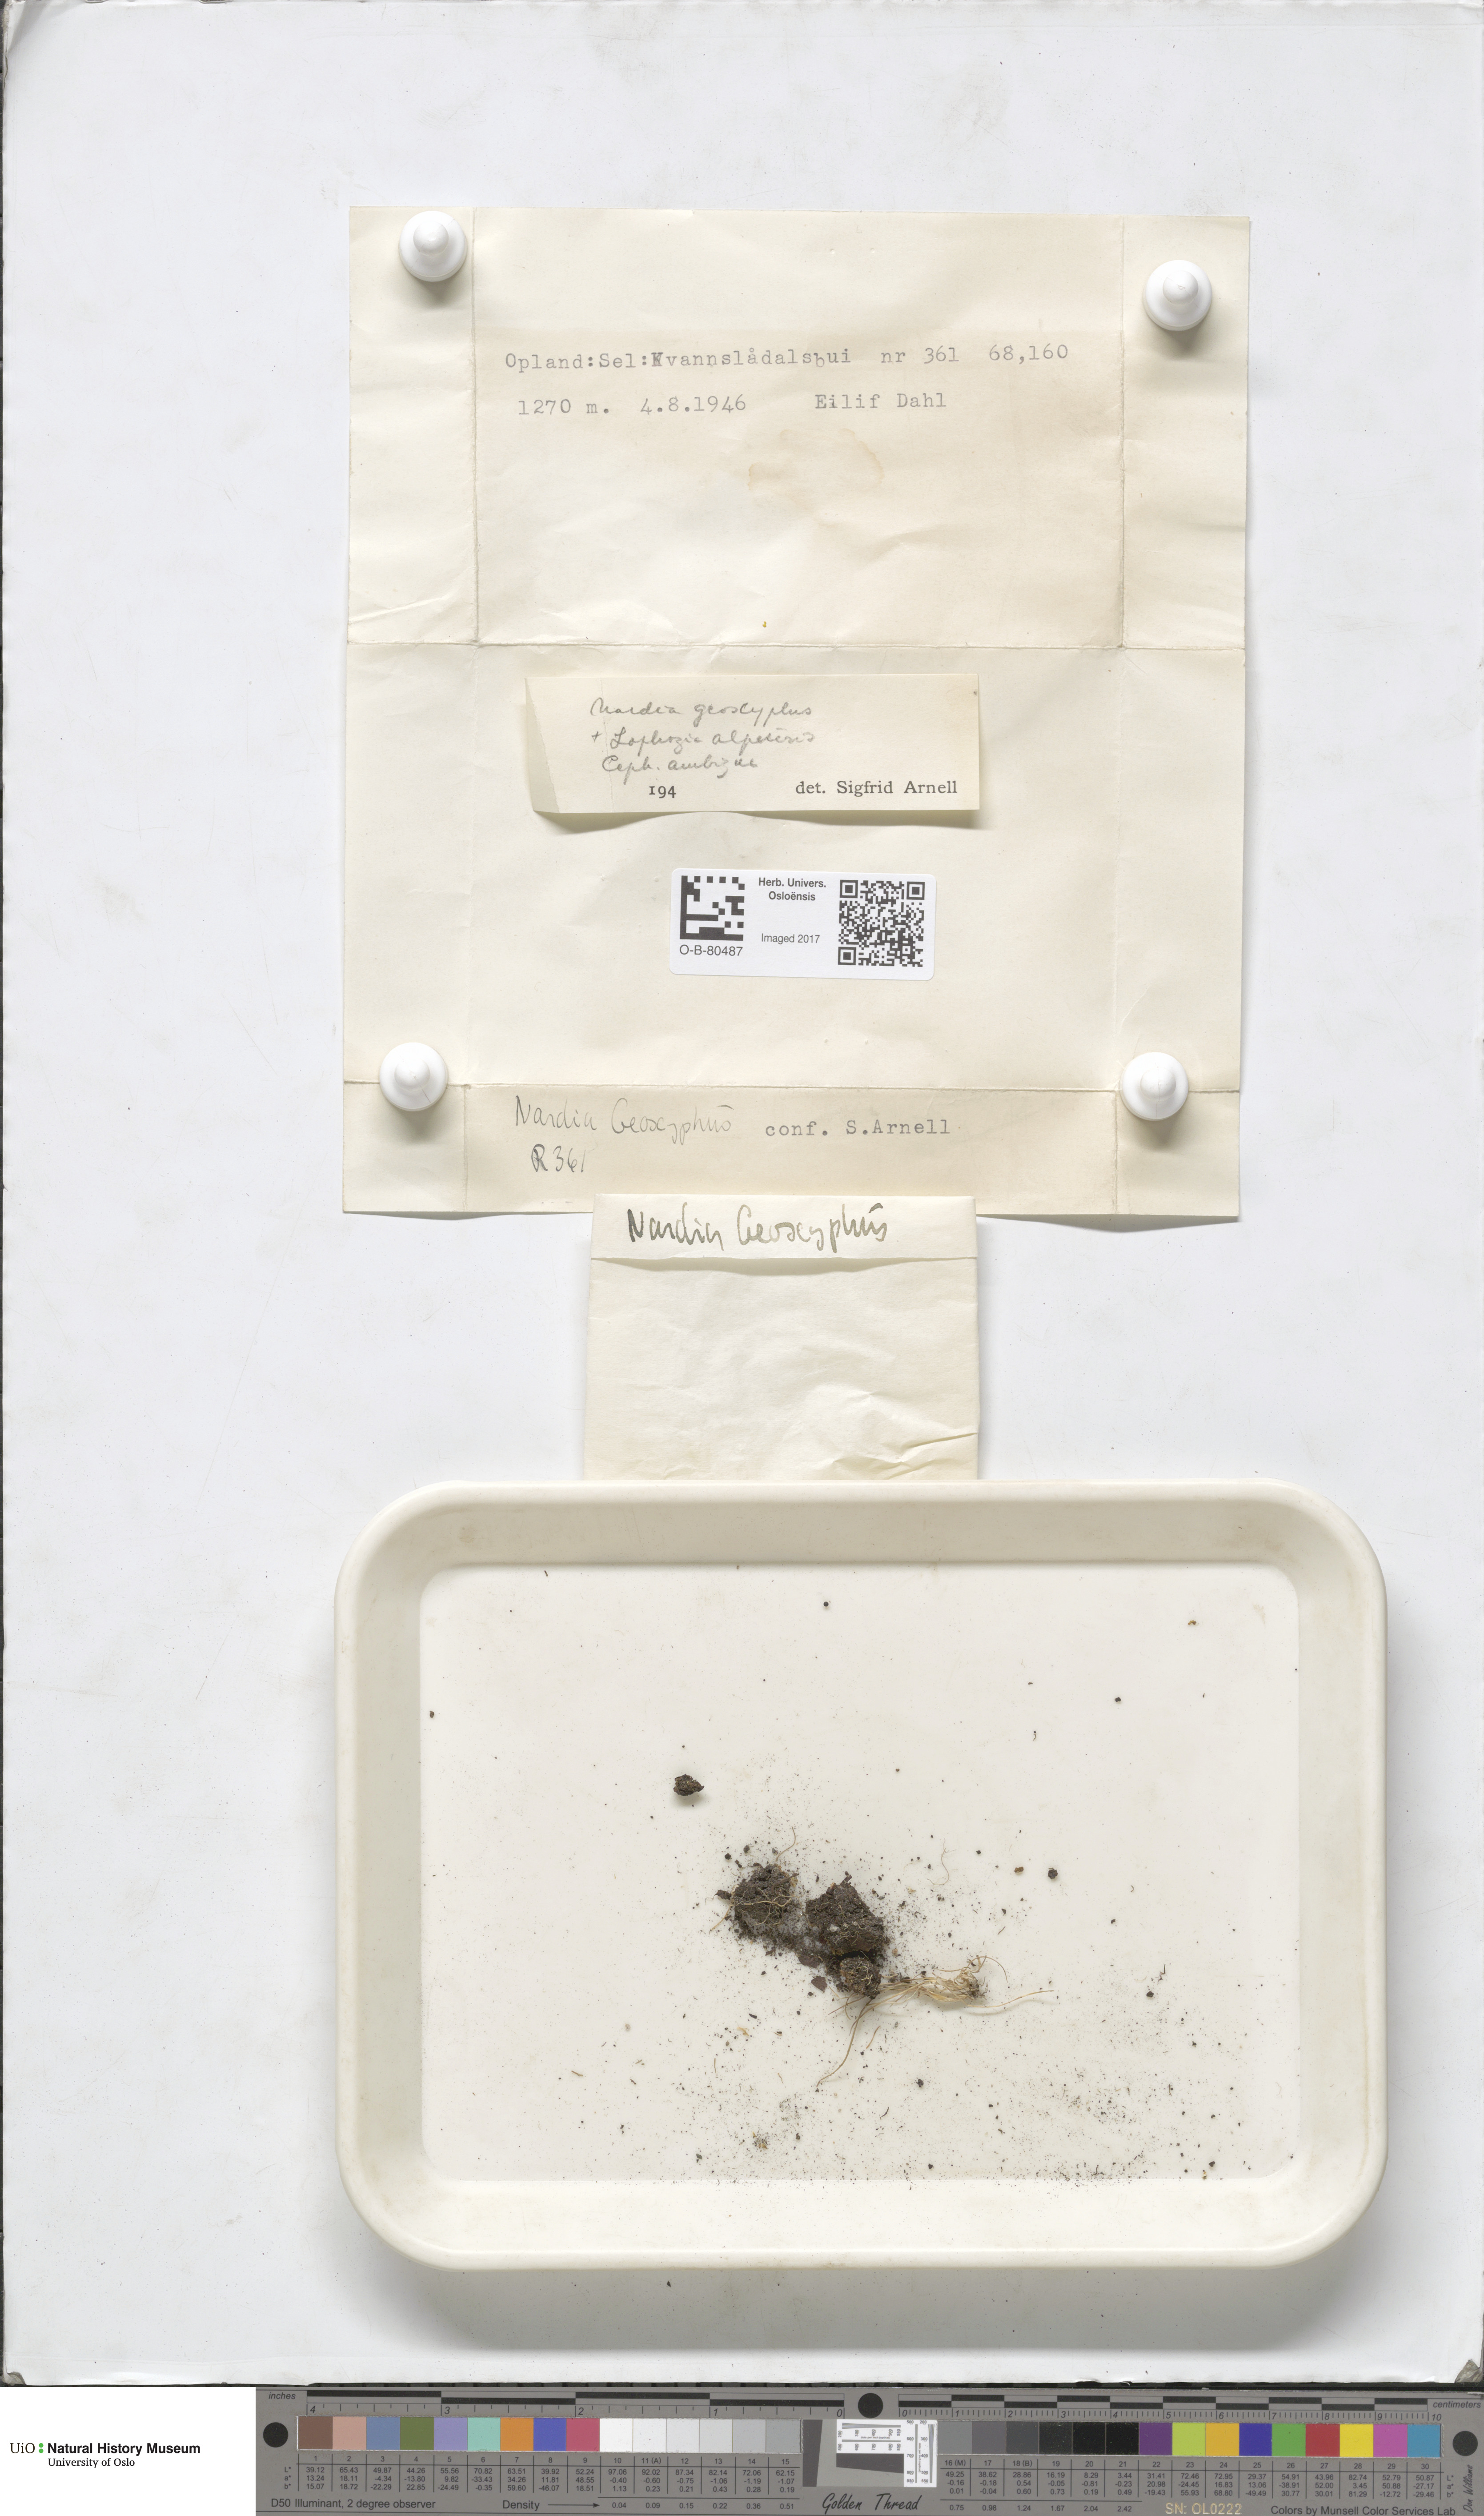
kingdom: Plantae
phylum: Marchantiophyta
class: Jungermanniopsida
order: Jungermanniales
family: Gymnomitriaceae
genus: Nardia
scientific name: Nardia geoscyphus
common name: Earth-cup flapwort
